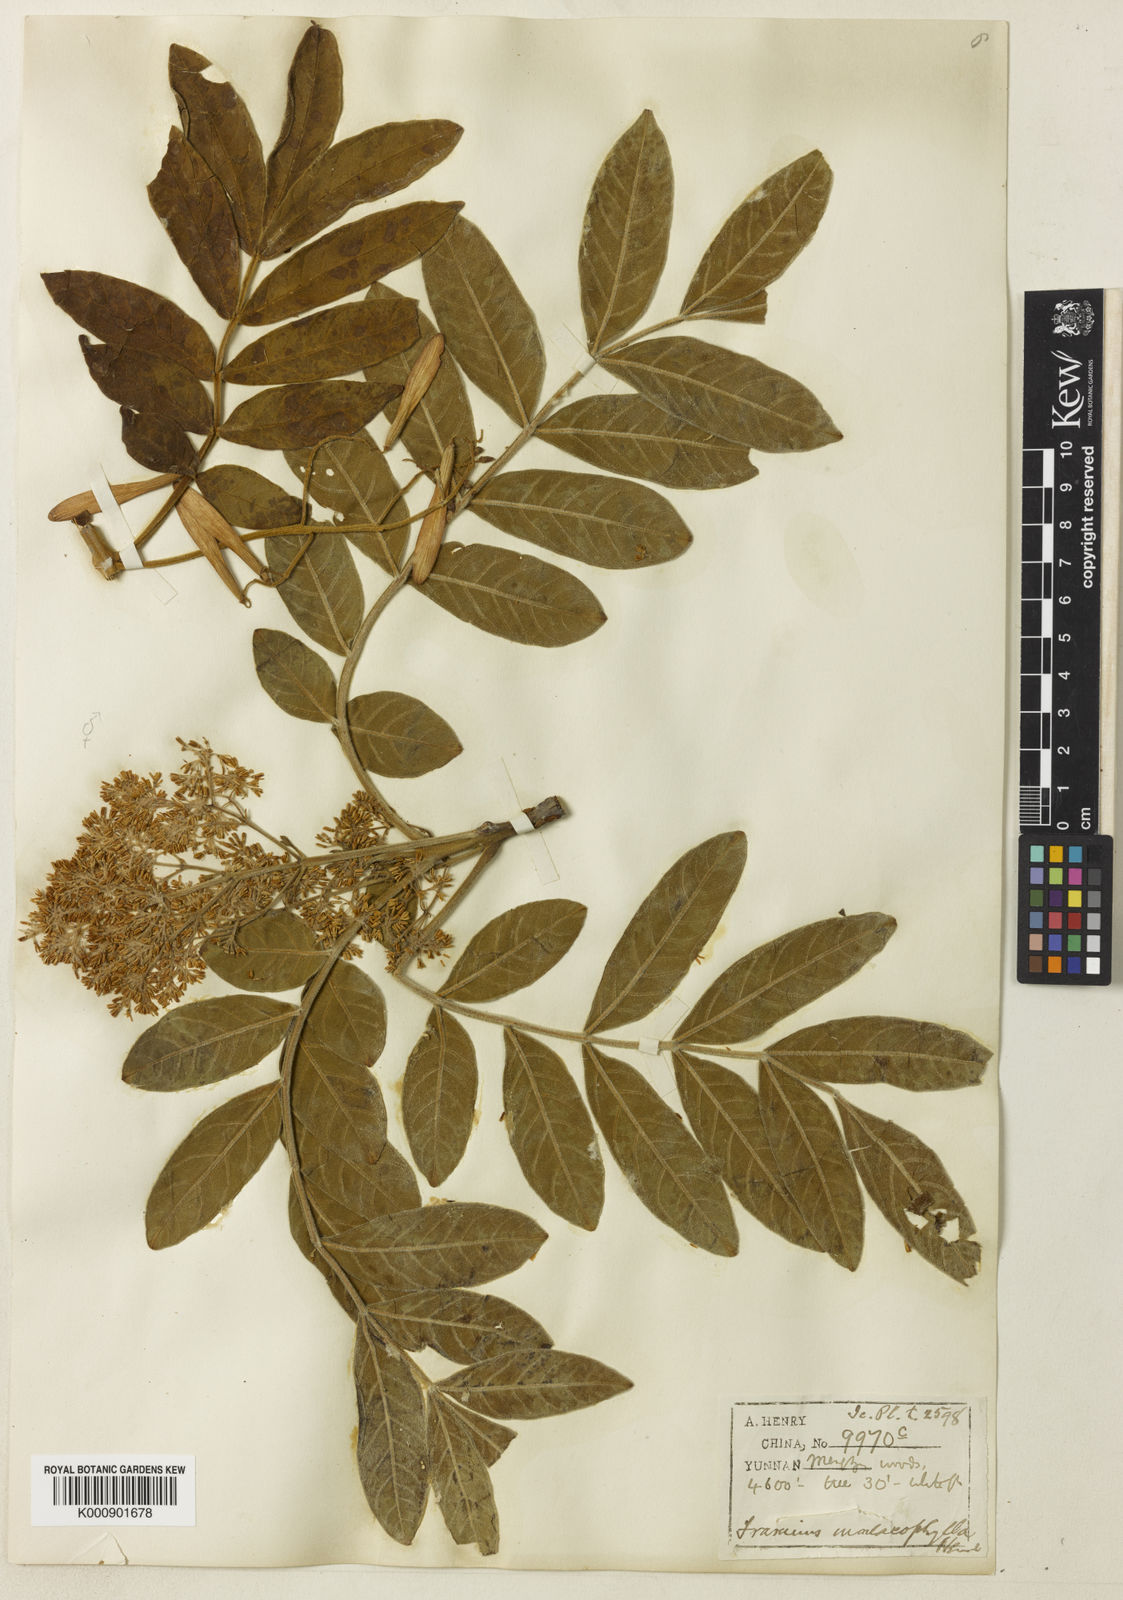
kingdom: Plantae
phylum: Tracheophyta
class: Magnoliopsida
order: Lamiales
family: Oleaceae
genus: Fraxinus
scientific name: Fraxinus malacophylla
